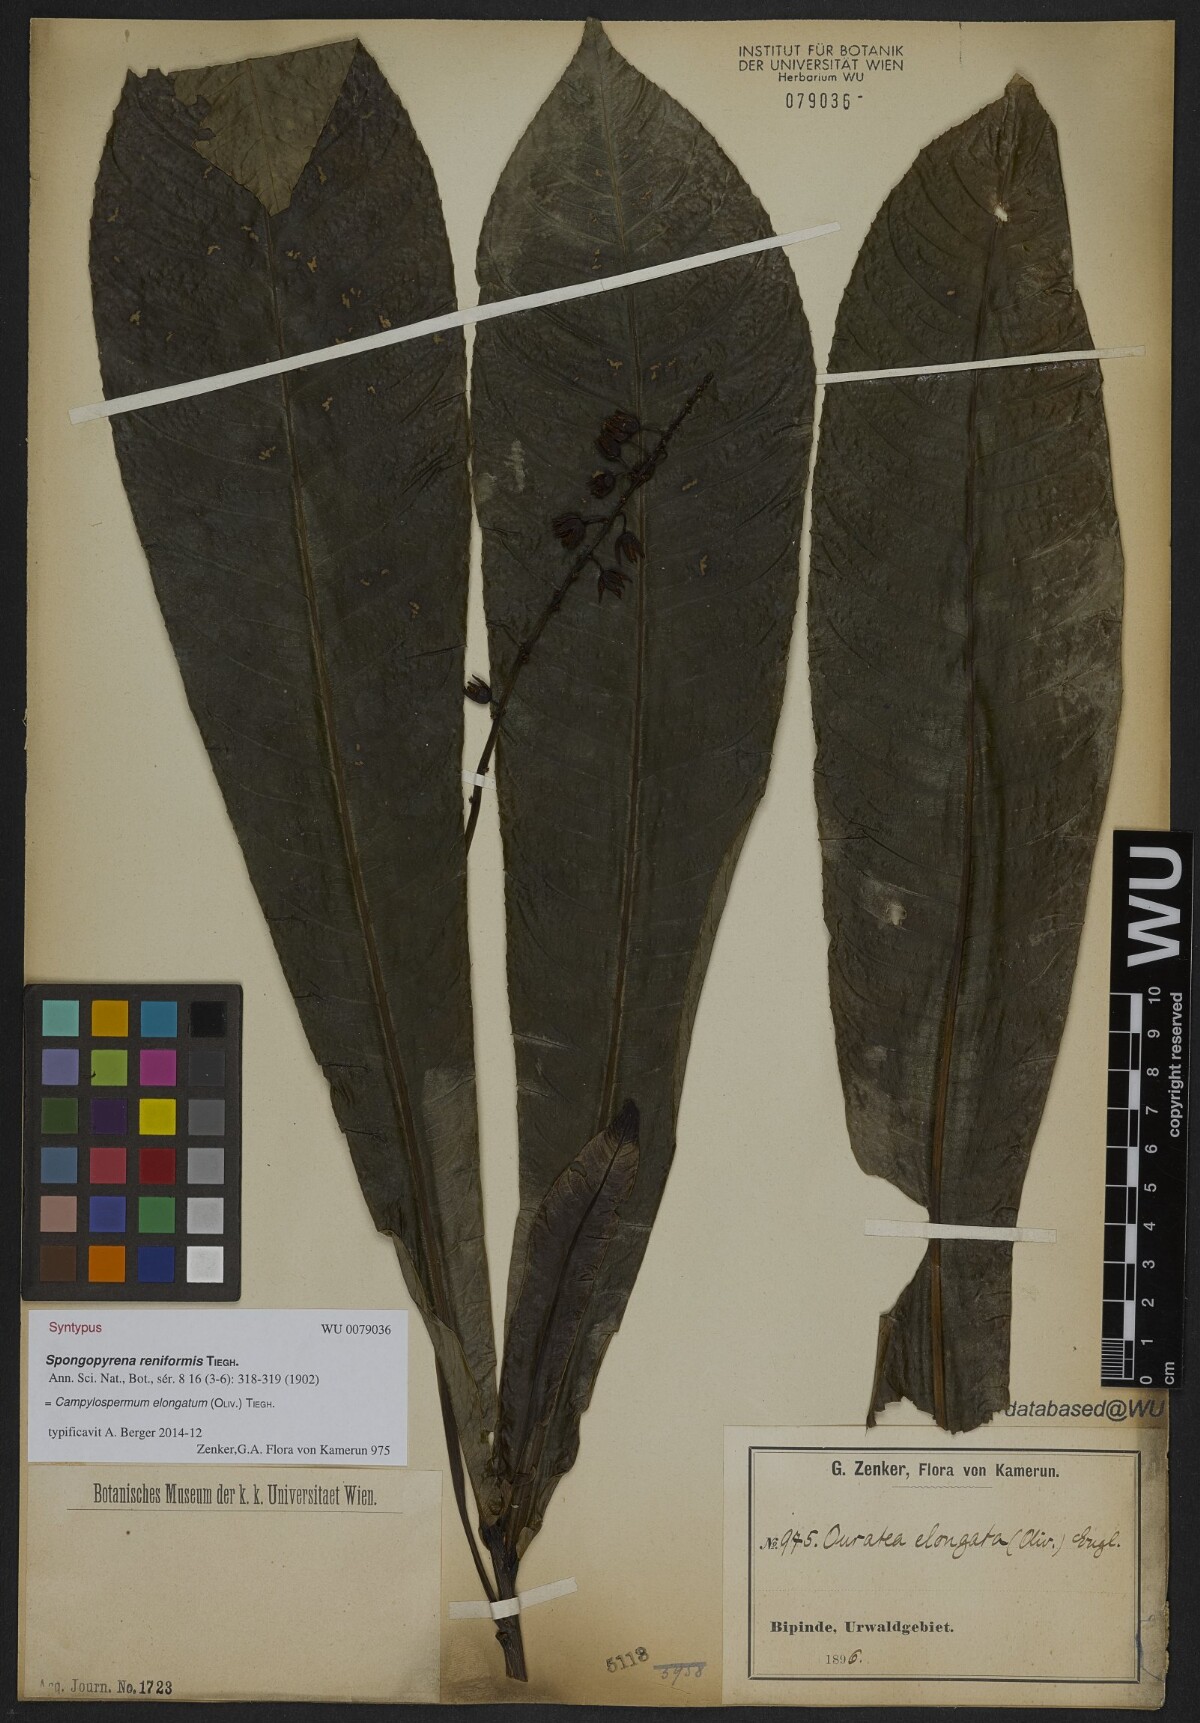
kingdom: Plantae
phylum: Tracheophyta
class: Magnoliopsida
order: Malpighiales
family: Ochnaceae
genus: Gomphia
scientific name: Gomphia elongata
